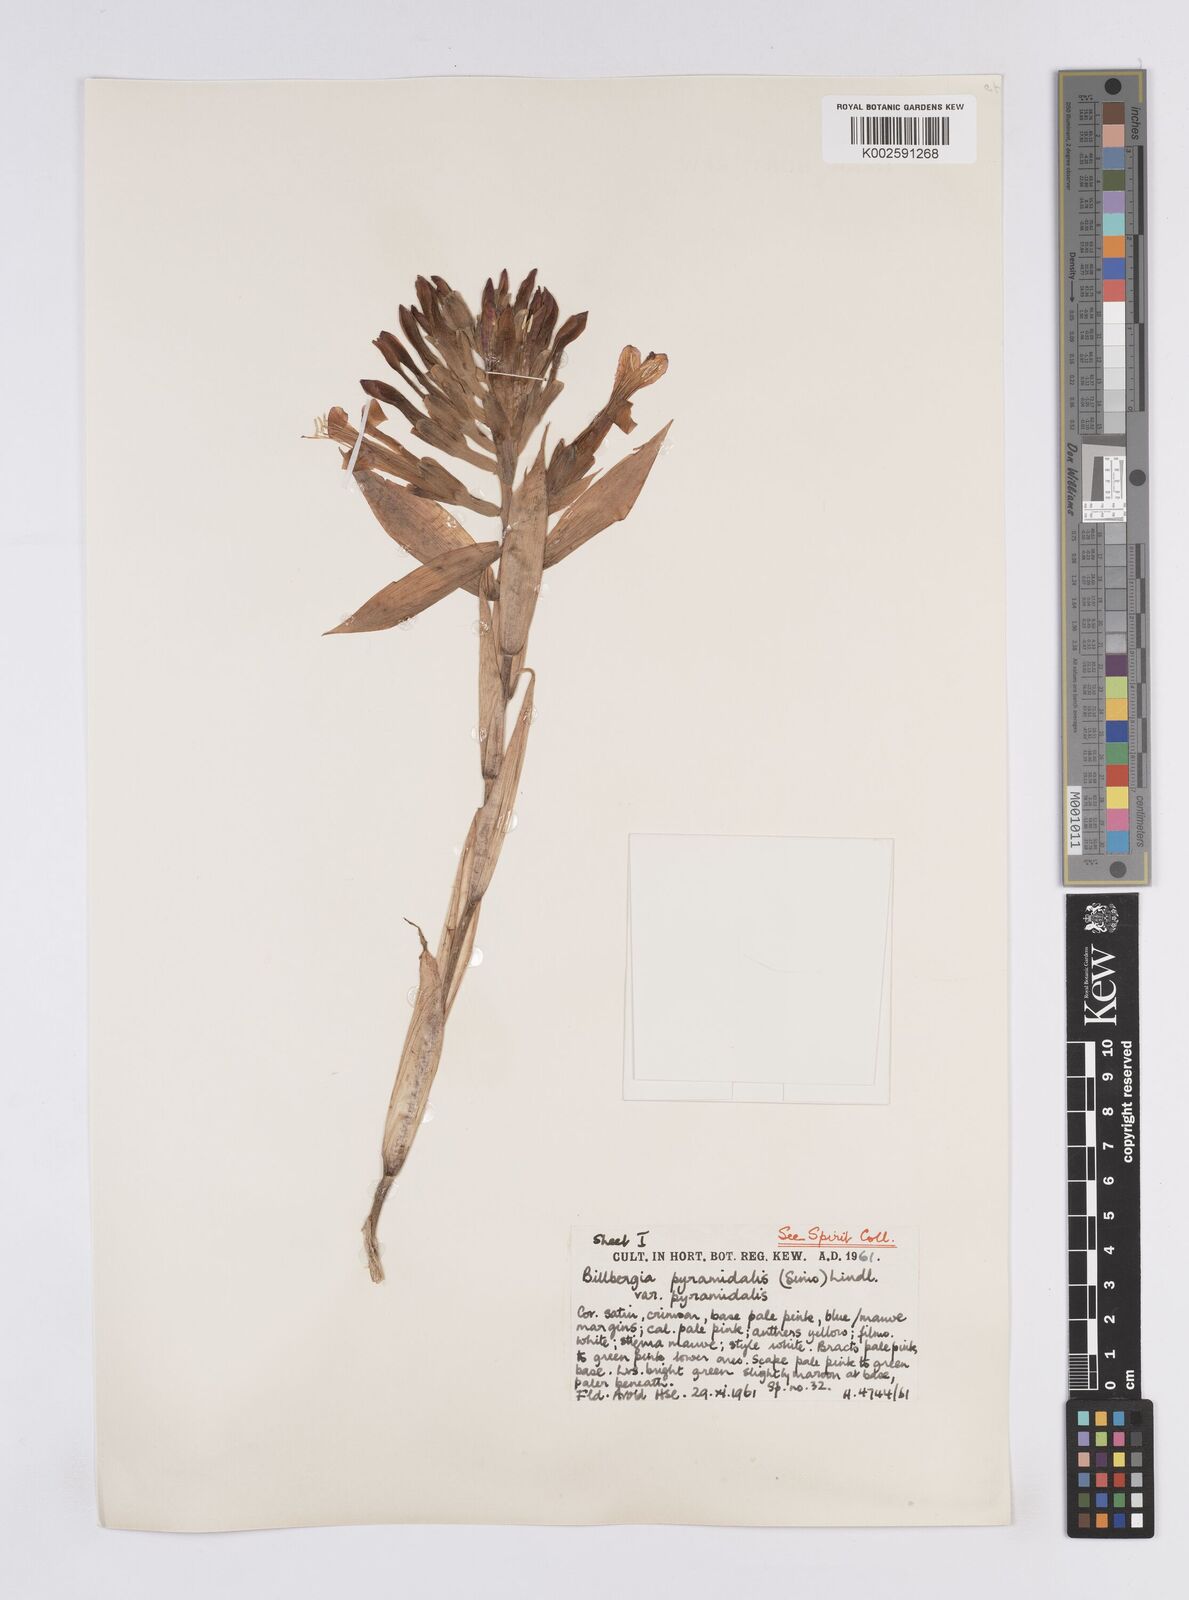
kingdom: Plantae
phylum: Tracheophyta
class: Liliopsida
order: Poales
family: Bromeliaceae
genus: Billbergia
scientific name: Billbergia pyramidalis
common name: Foolproofplant
